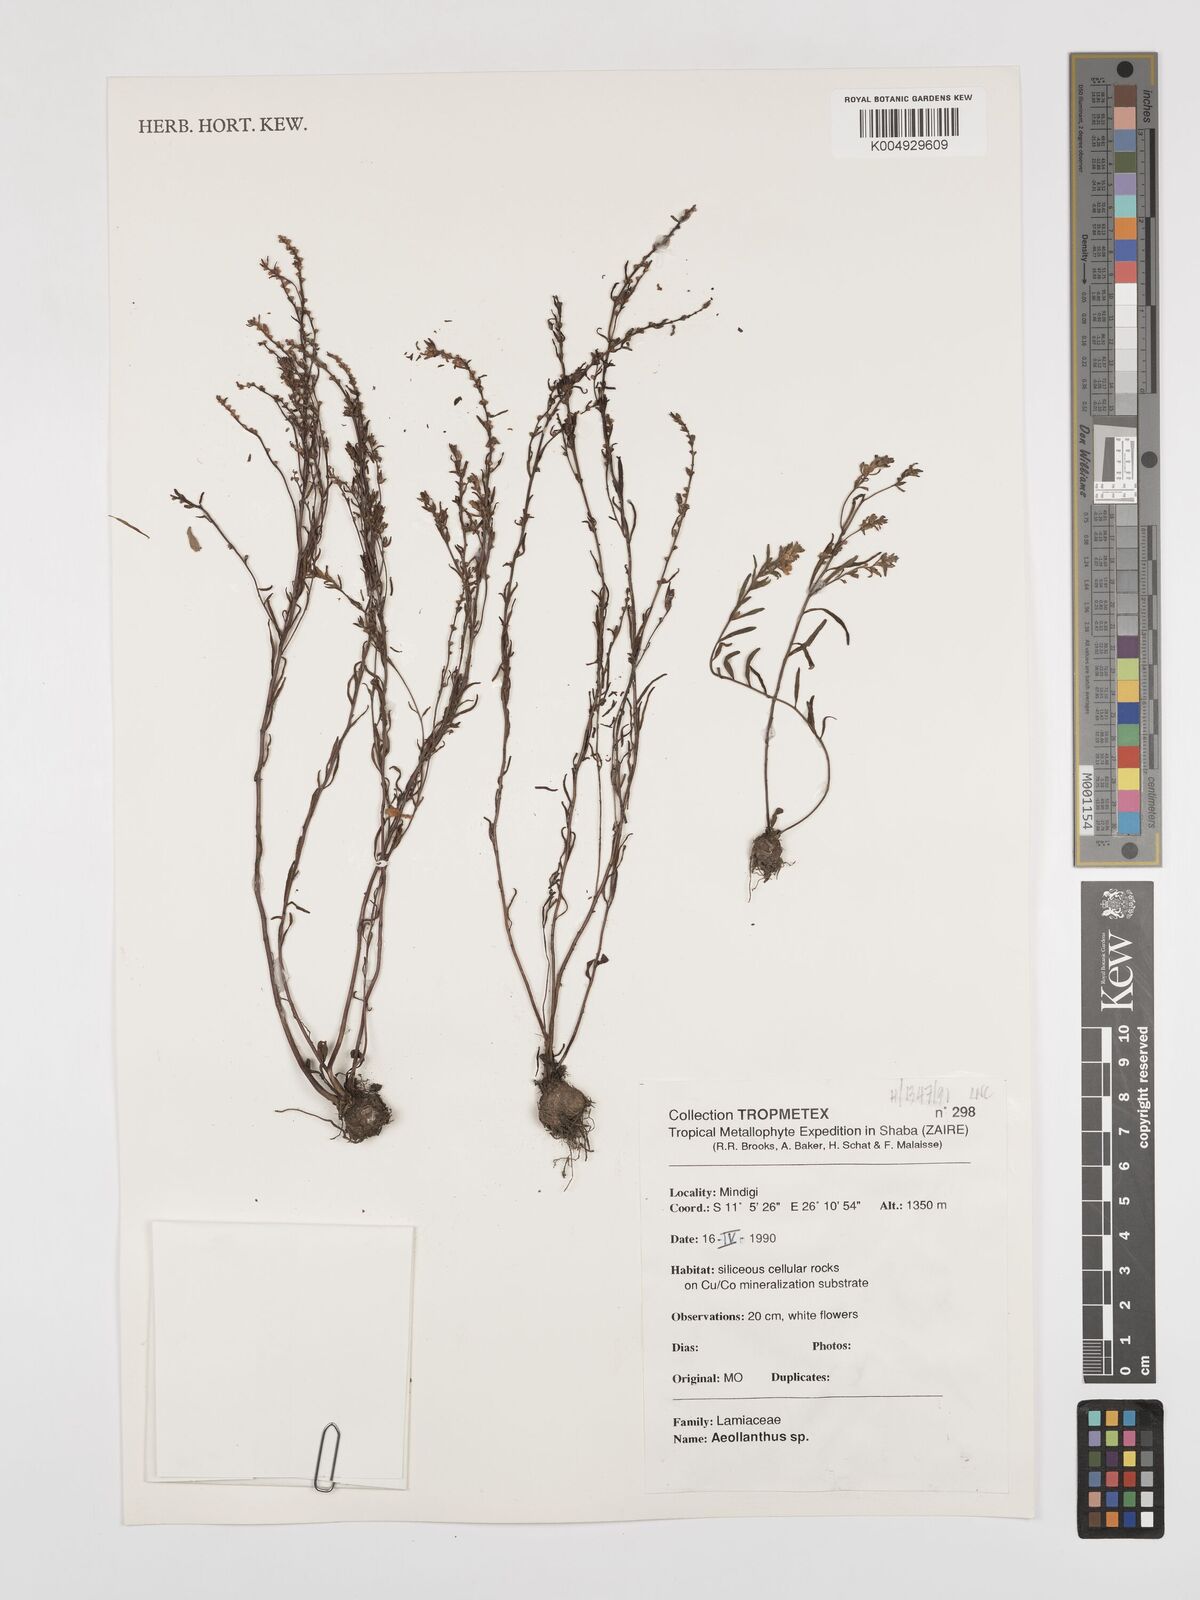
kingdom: Plantae
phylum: Tracheophyta
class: Magnoliopsida
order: Lamiales
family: Lamiaceae
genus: Aeollanthus
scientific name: Aeollanthus
